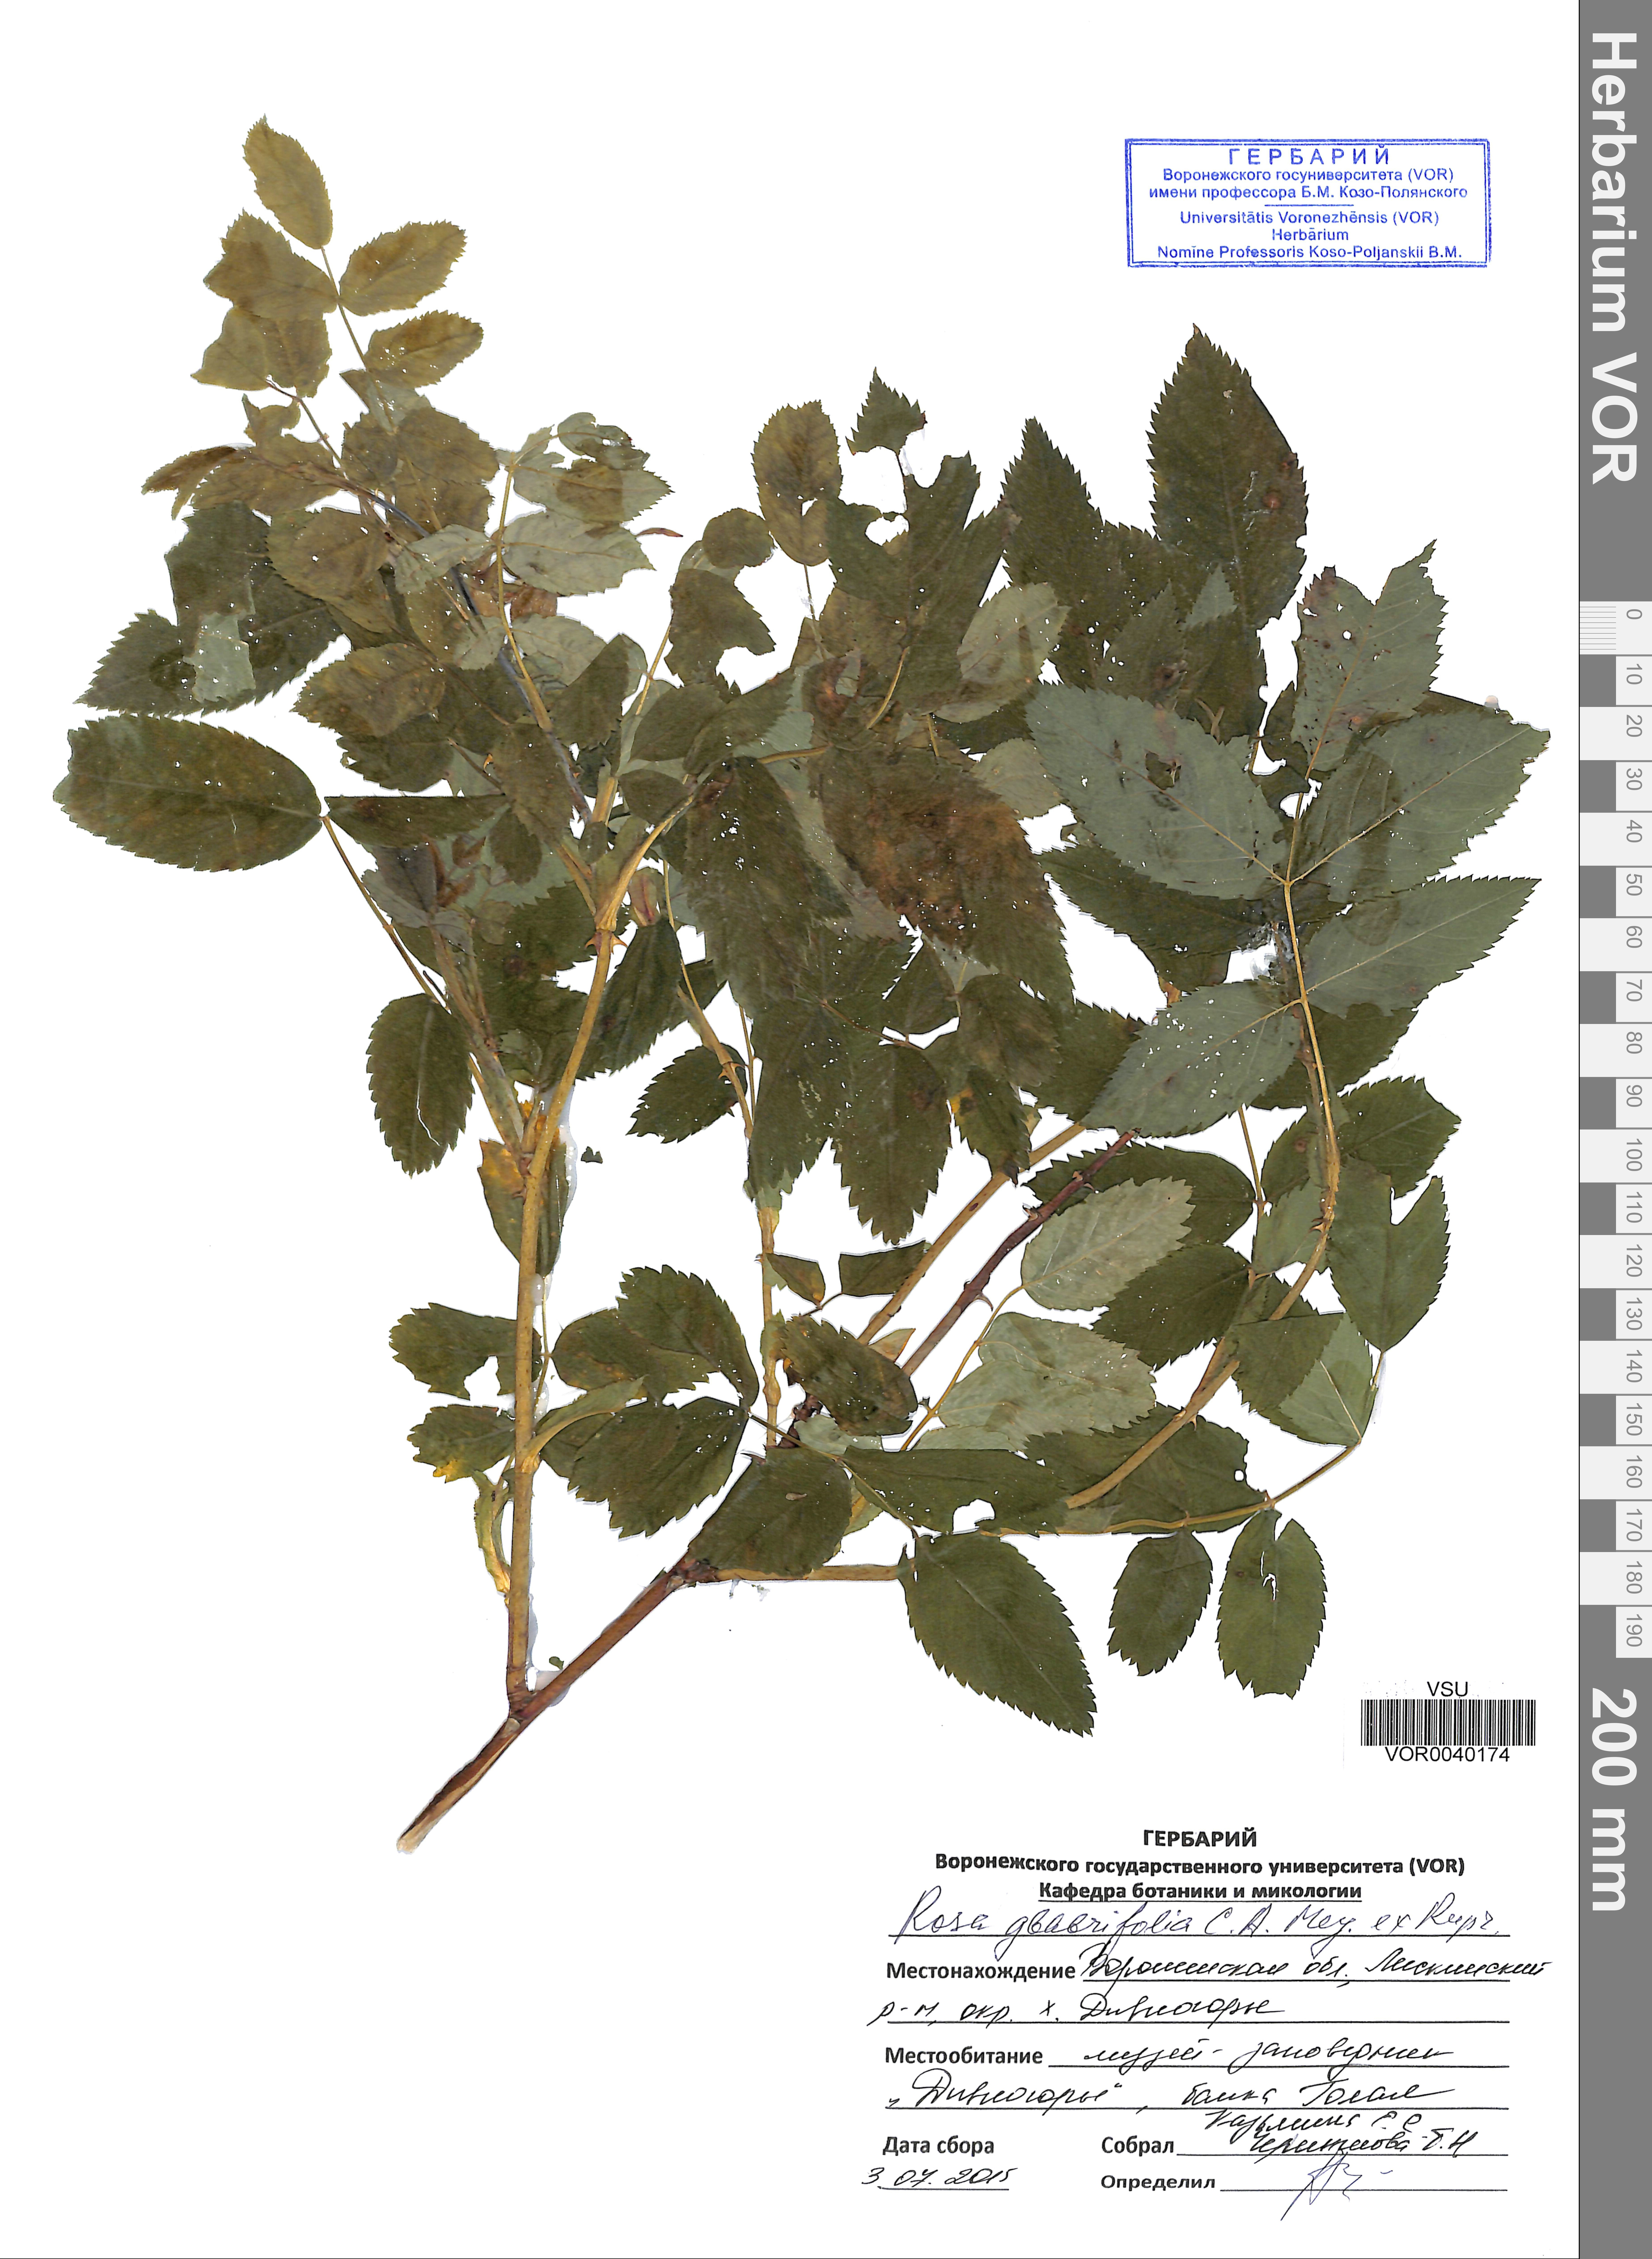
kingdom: Plantae
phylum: Tracheophyta
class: Magnoliopsida
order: Rosales
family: Rosaceae
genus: Rosa
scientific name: Rosa glabrifolia
